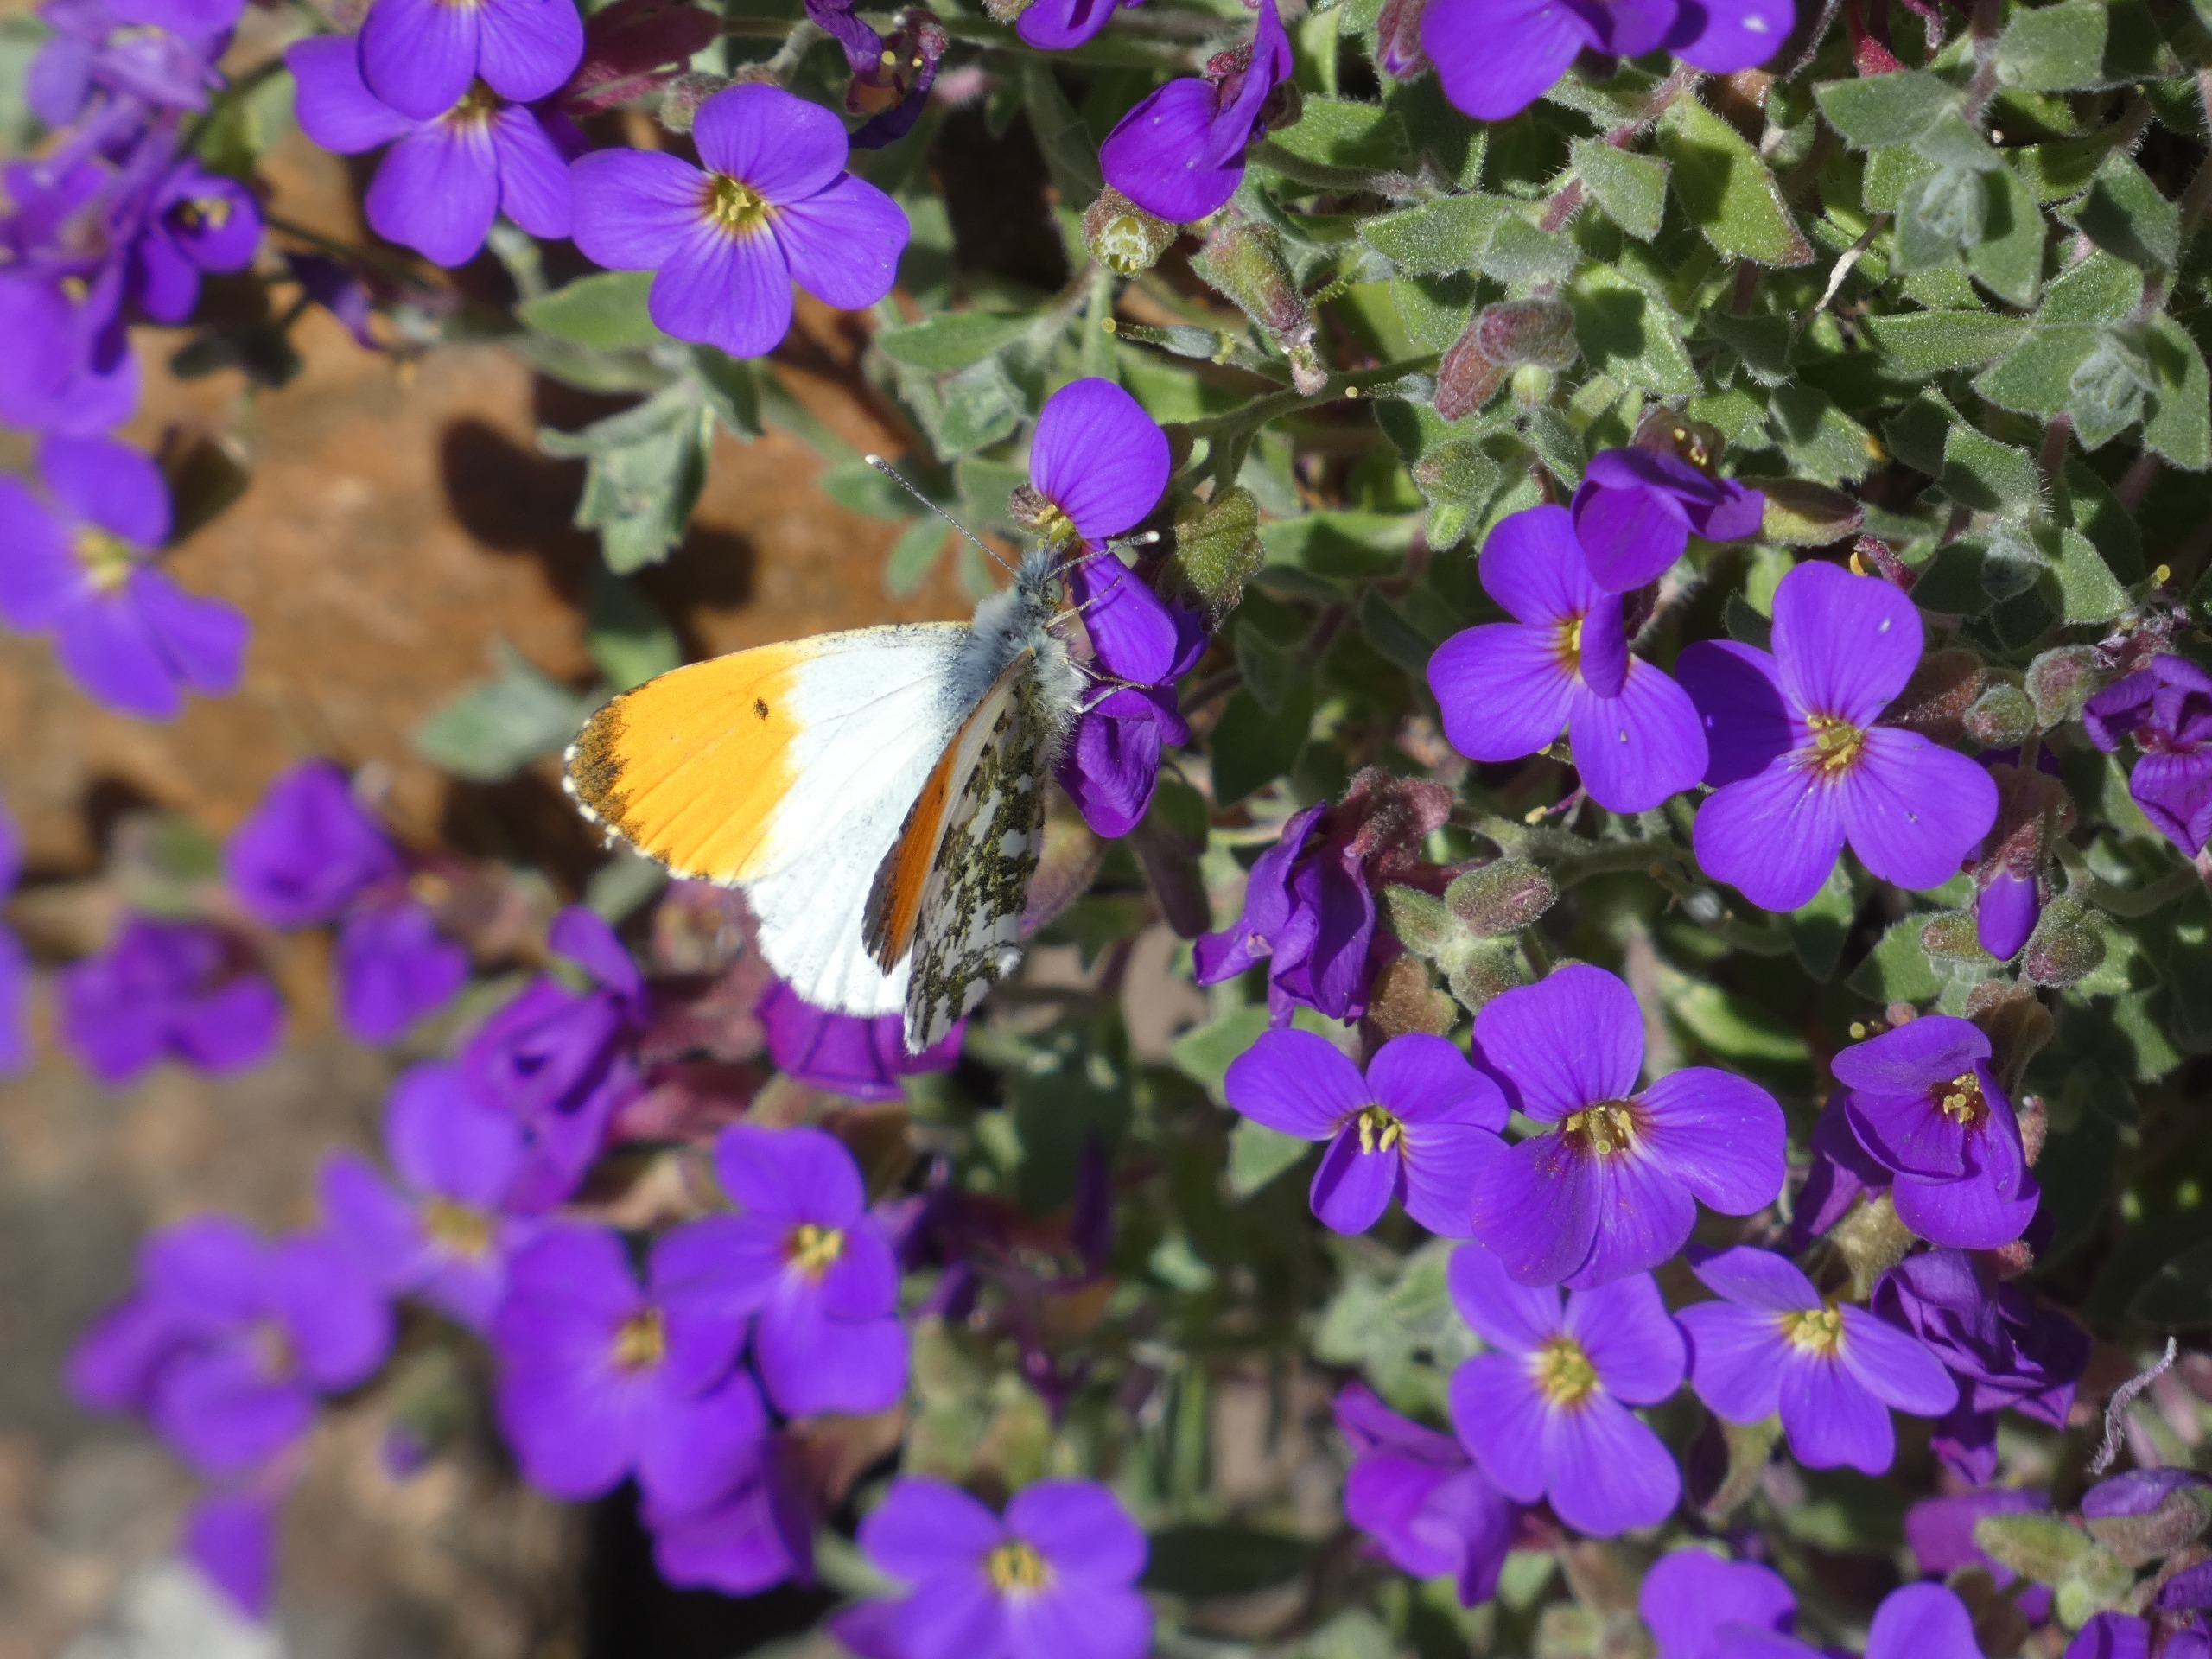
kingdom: Animalia
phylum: Arthropoda
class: Insecta
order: Lepidoptera
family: Pieridae
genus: Anthocharis
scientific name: Anthocharis cardamines
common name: Aurora
